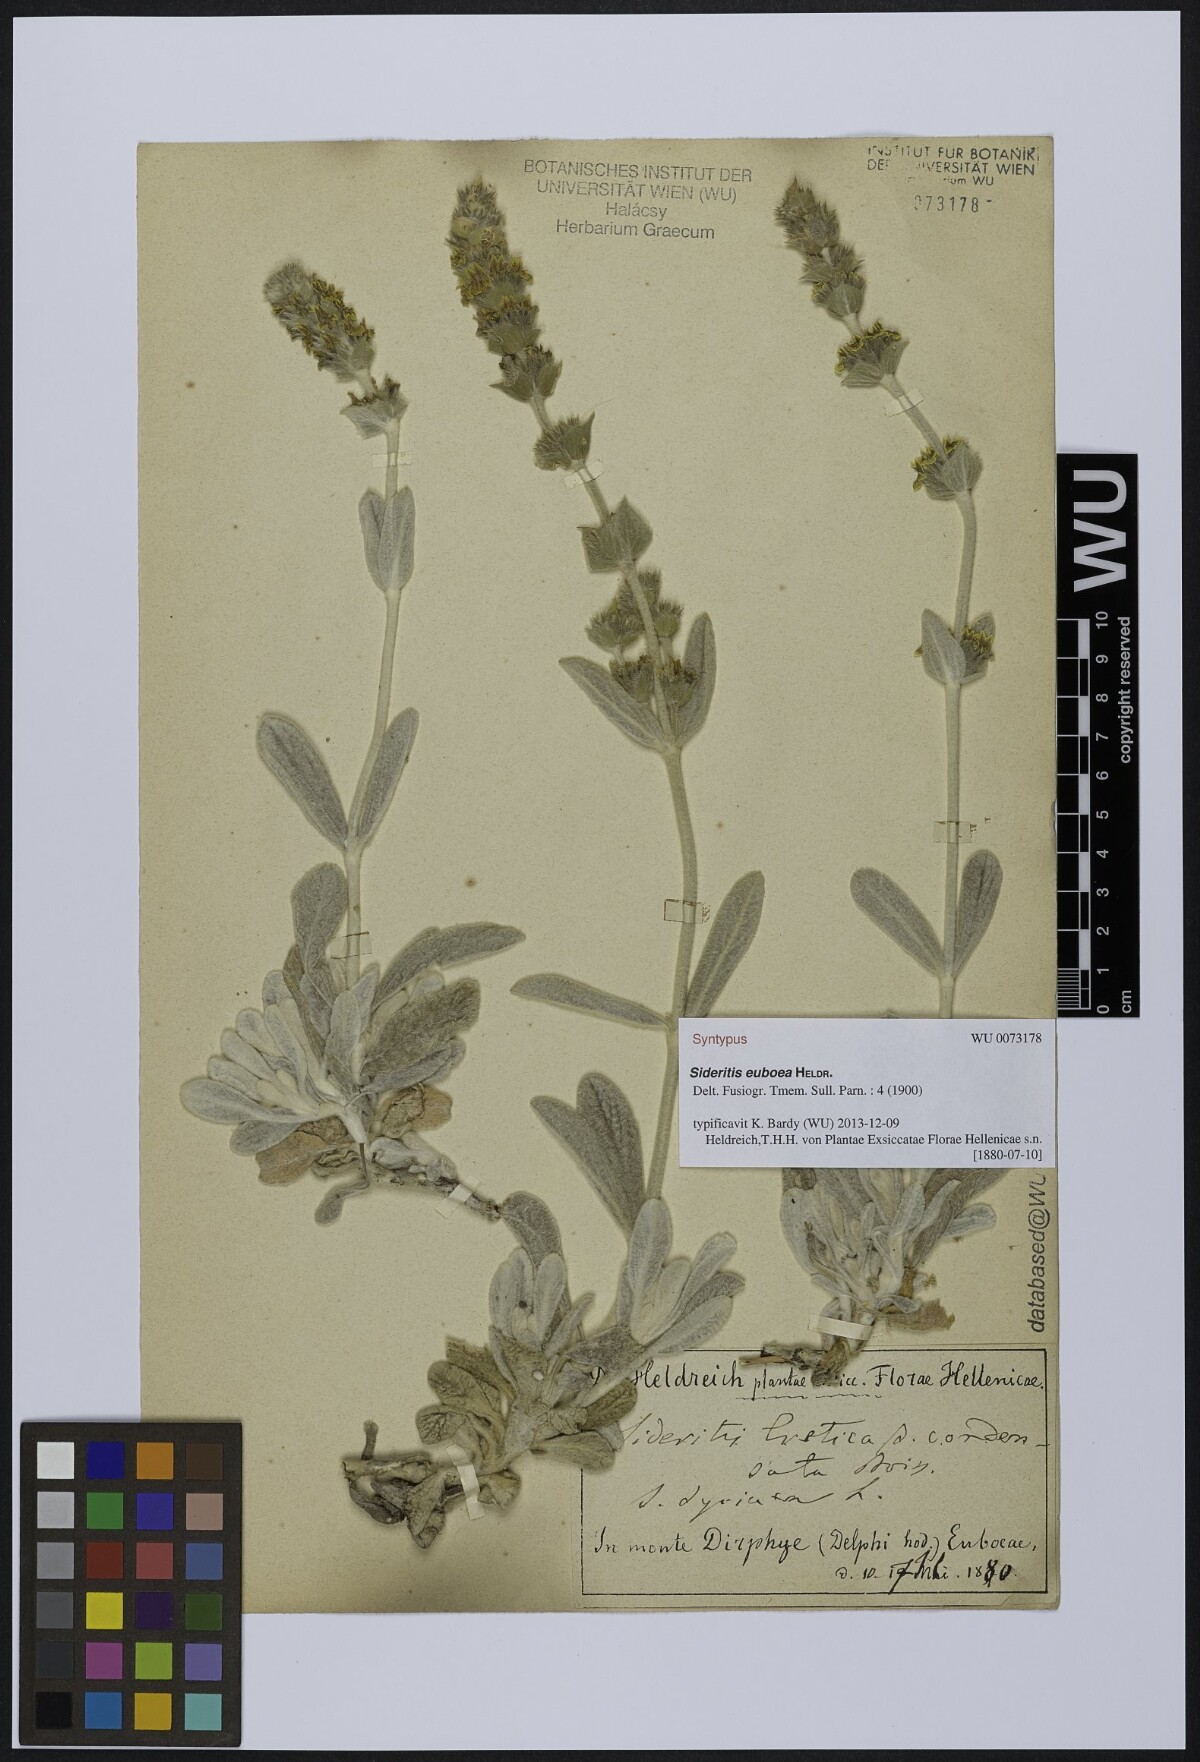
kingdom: Plantae
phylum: Tracheophyta
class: Magnoliopsida
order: Lamiales
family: Lamiaceae
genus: Sideritis
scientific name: Sideritis euboea
